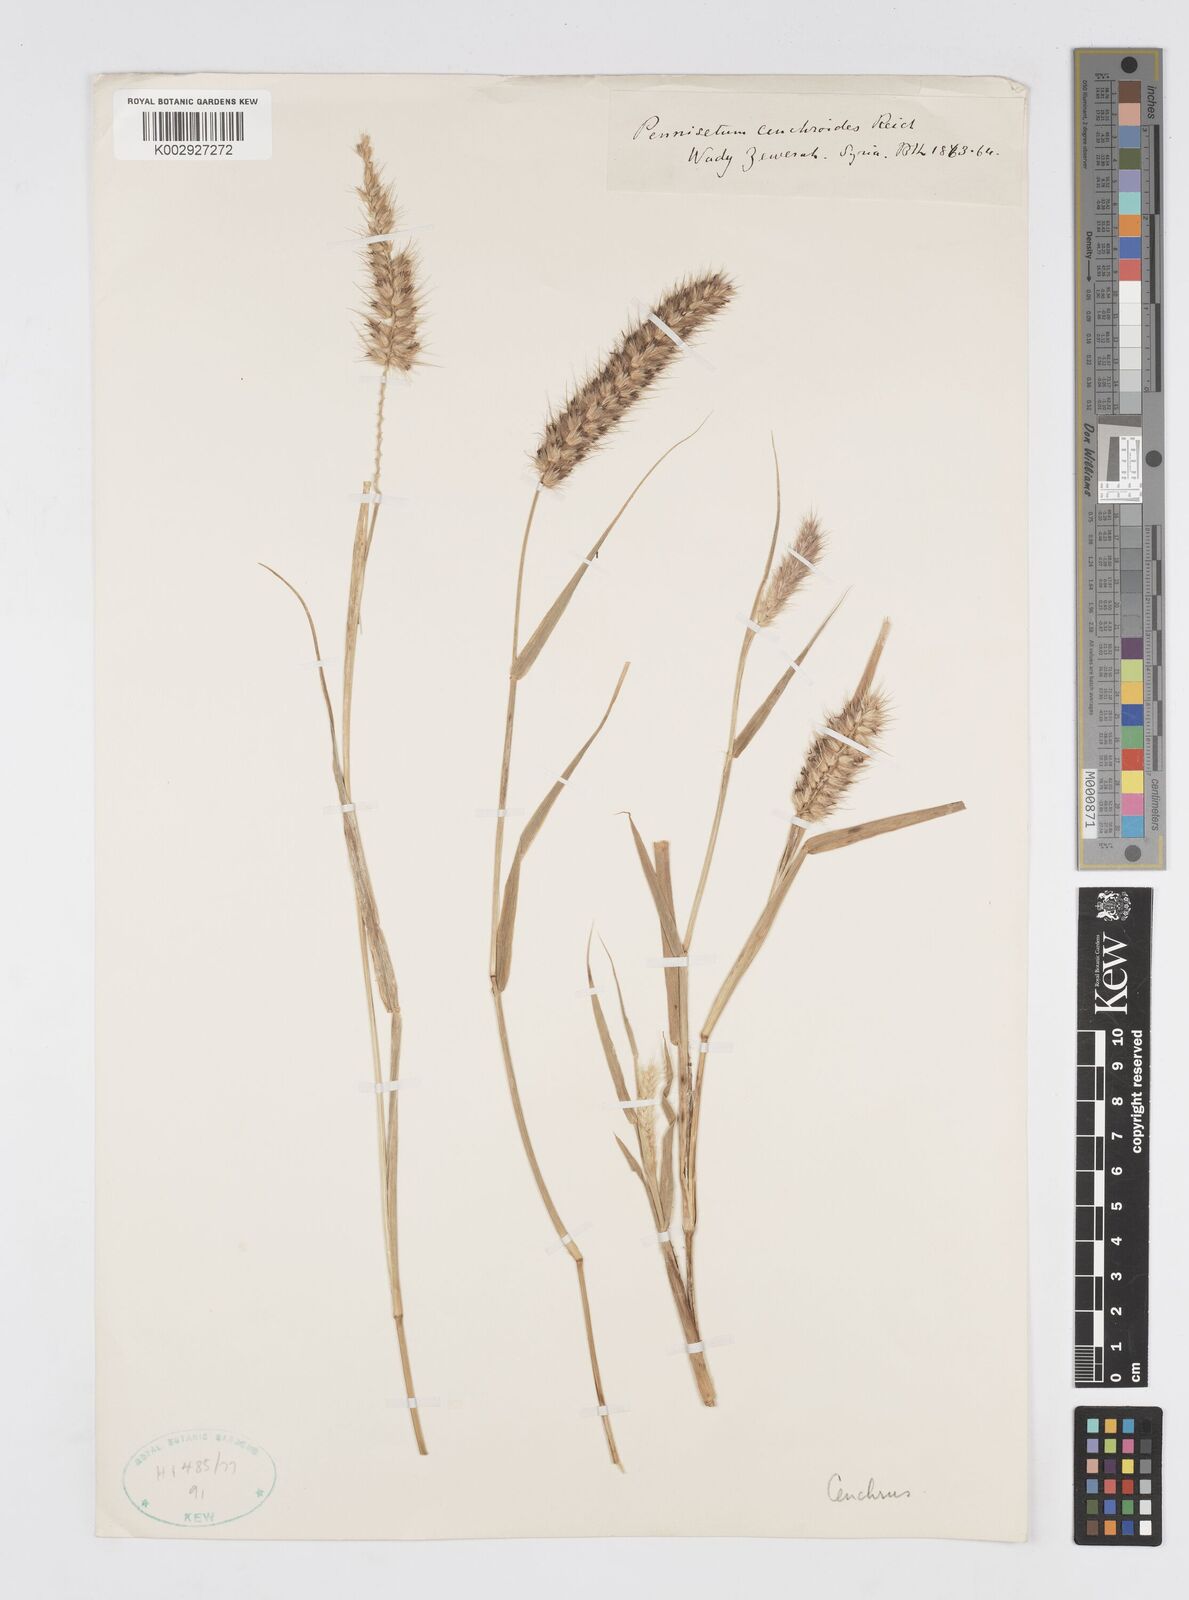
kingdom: Plantae
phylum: Tracheophyta
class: Liliopsida
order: Poales
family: Poaceae
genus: Cenchrus
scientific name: Cenchrus
